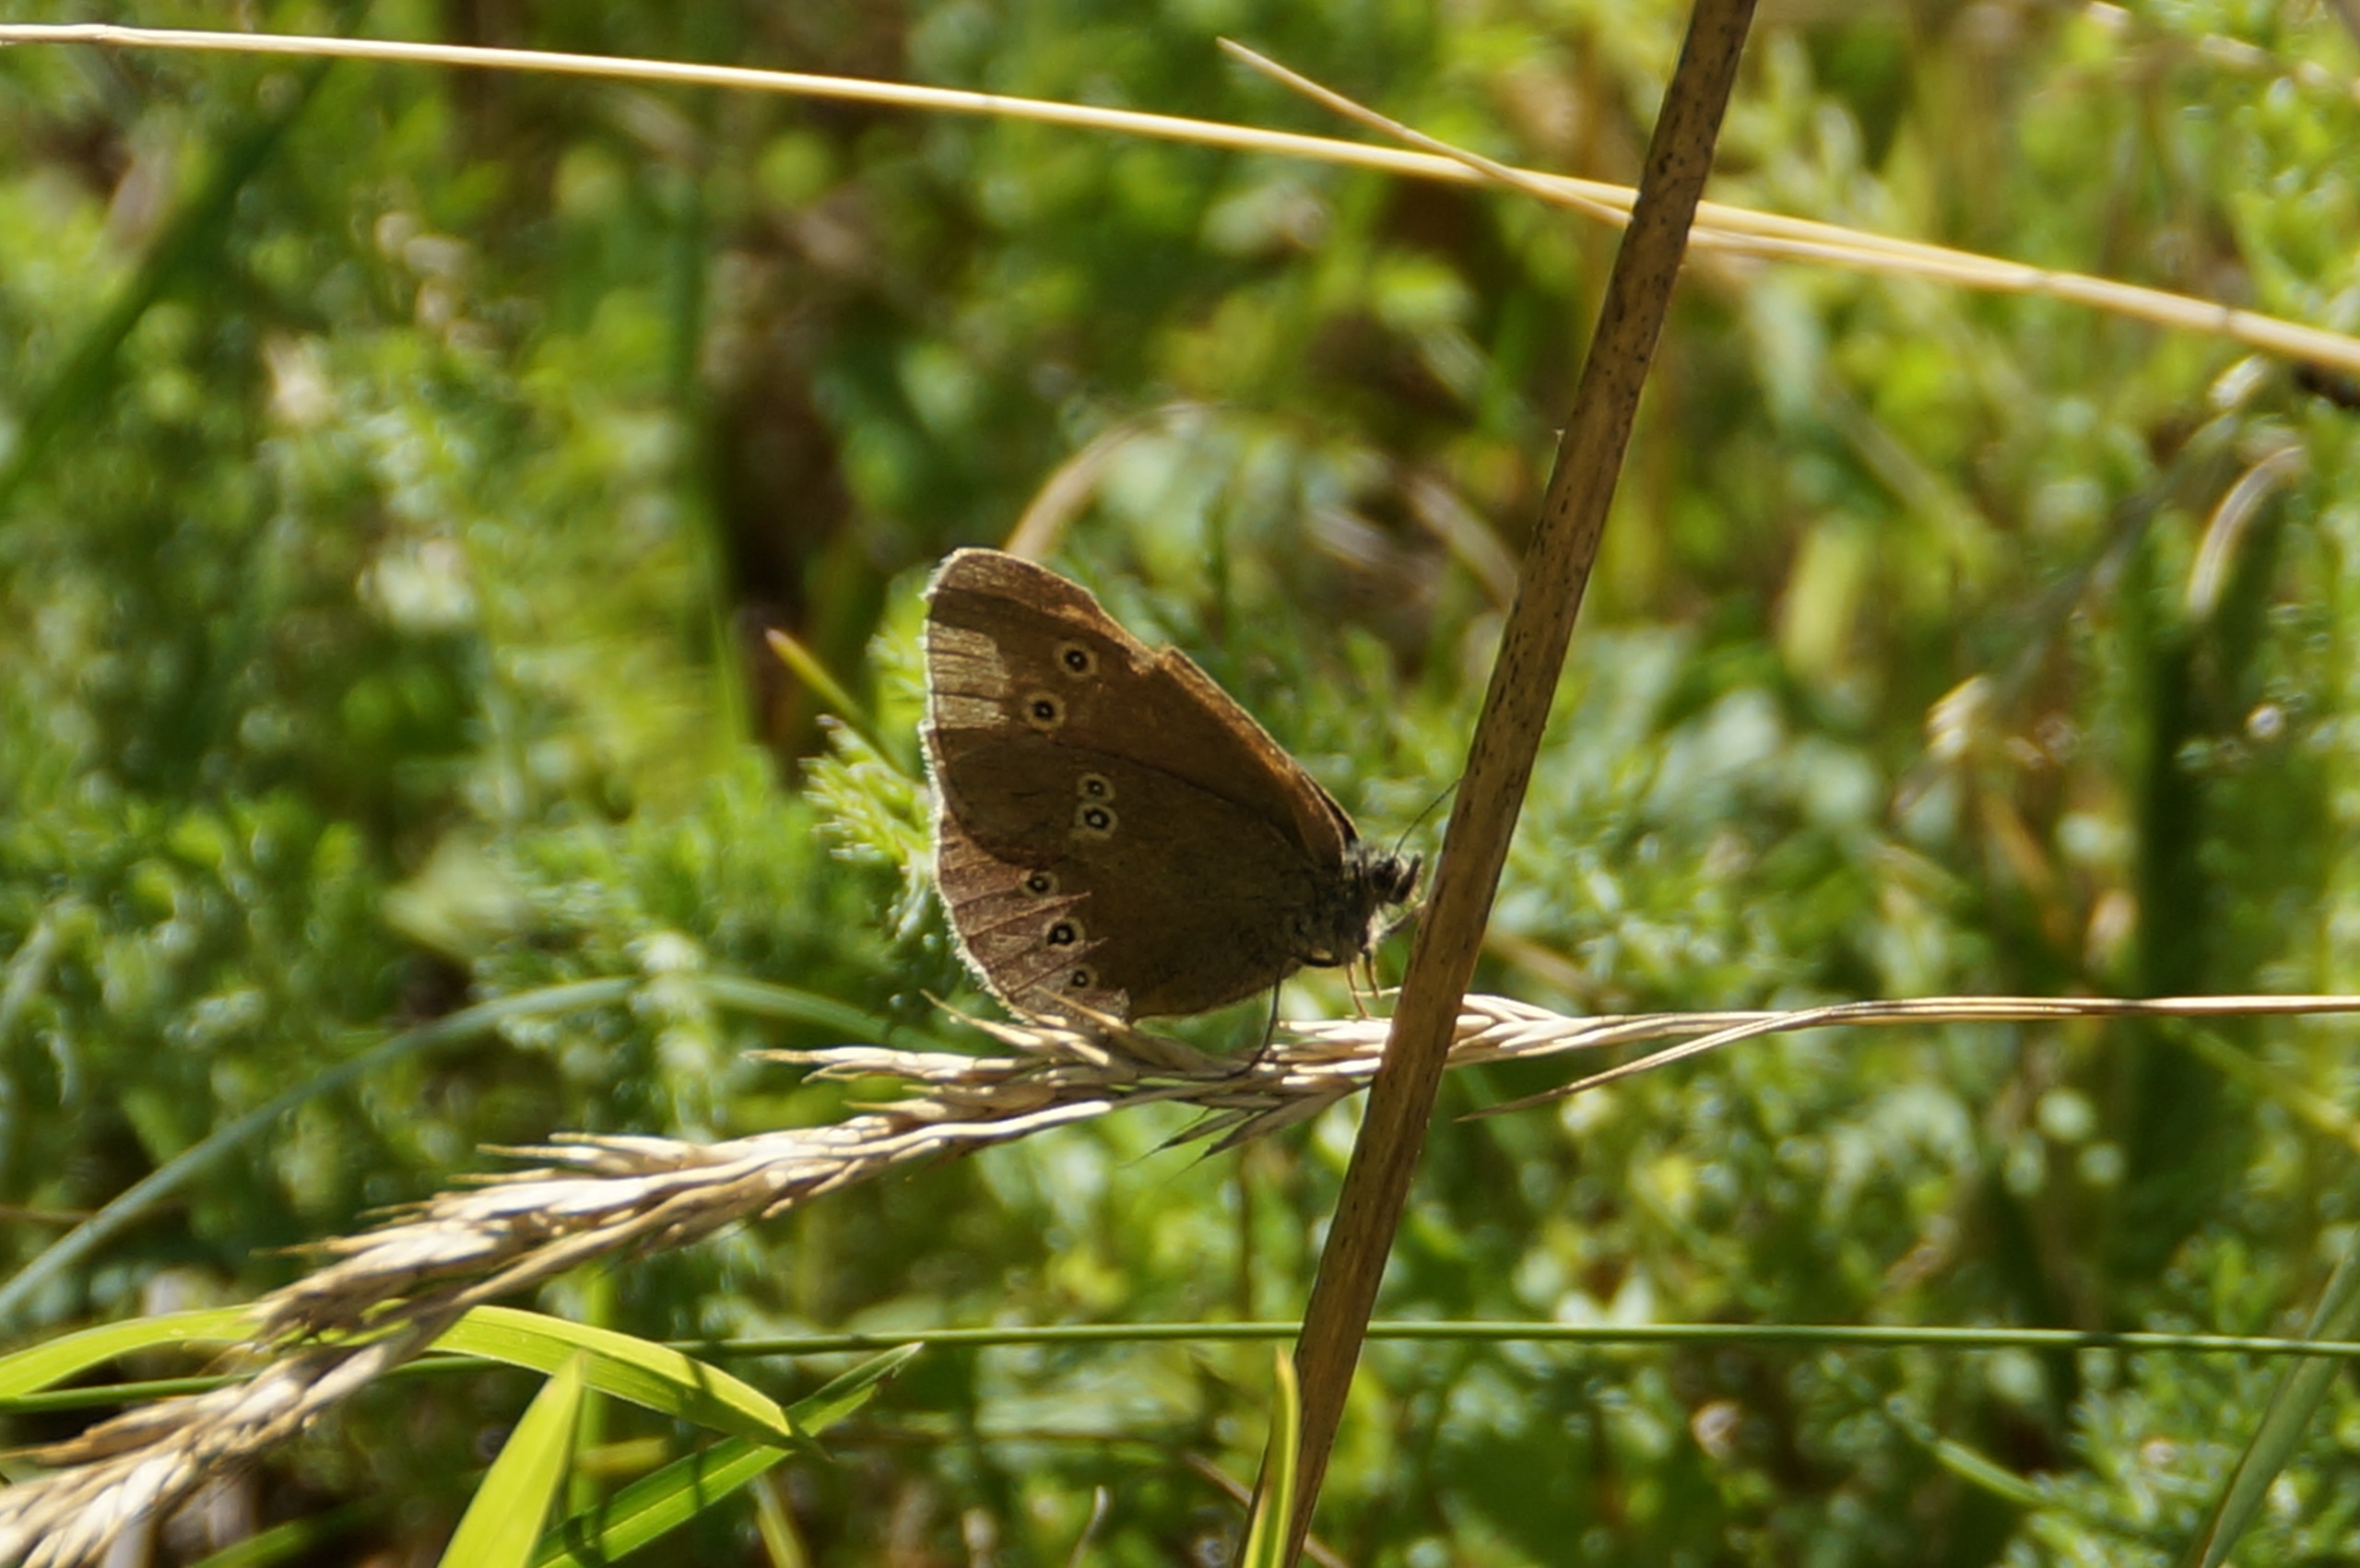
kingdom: Animalia
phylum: Arthropoda
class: Insecta
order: Lepidoptera
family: Nymphalidae
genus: Aphantopus
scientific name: Aphantopus hyperantus
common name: Engrandøje
